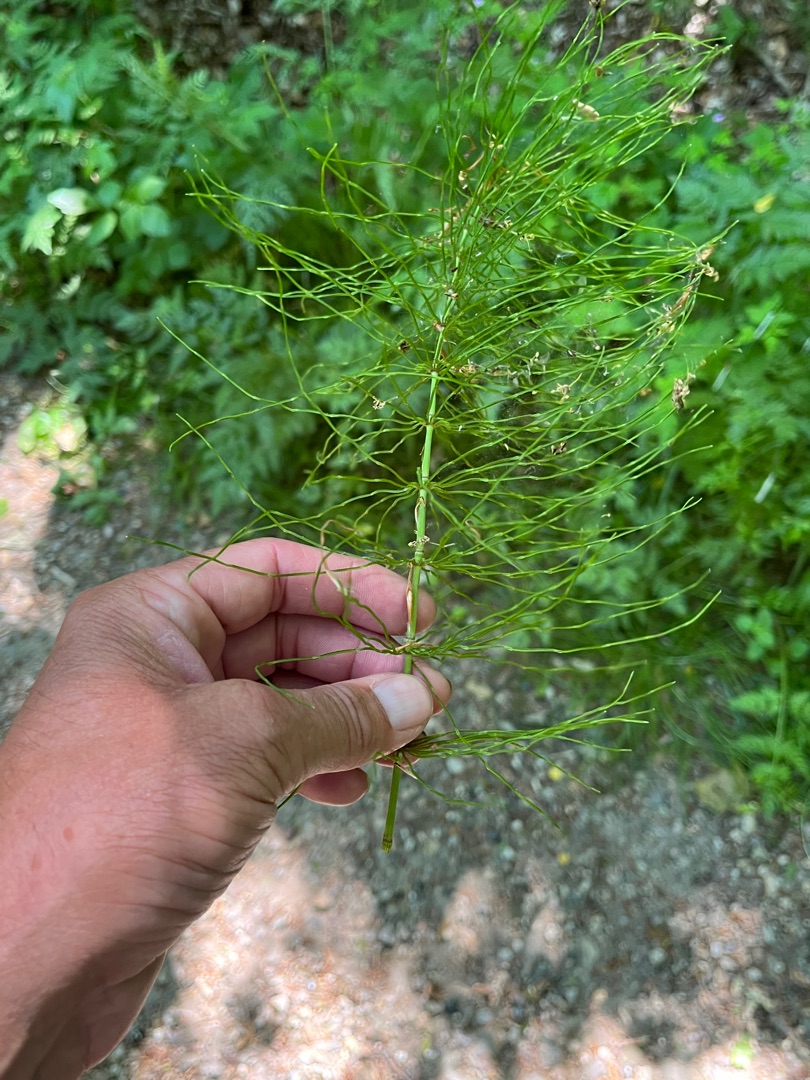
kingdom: Plantae
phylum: Tracheophyta
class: Polypodiopsida
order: Equisetales
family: Equisetaceae
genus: Equisetum
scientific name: Equisetum pratense
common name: Lund-padderok
